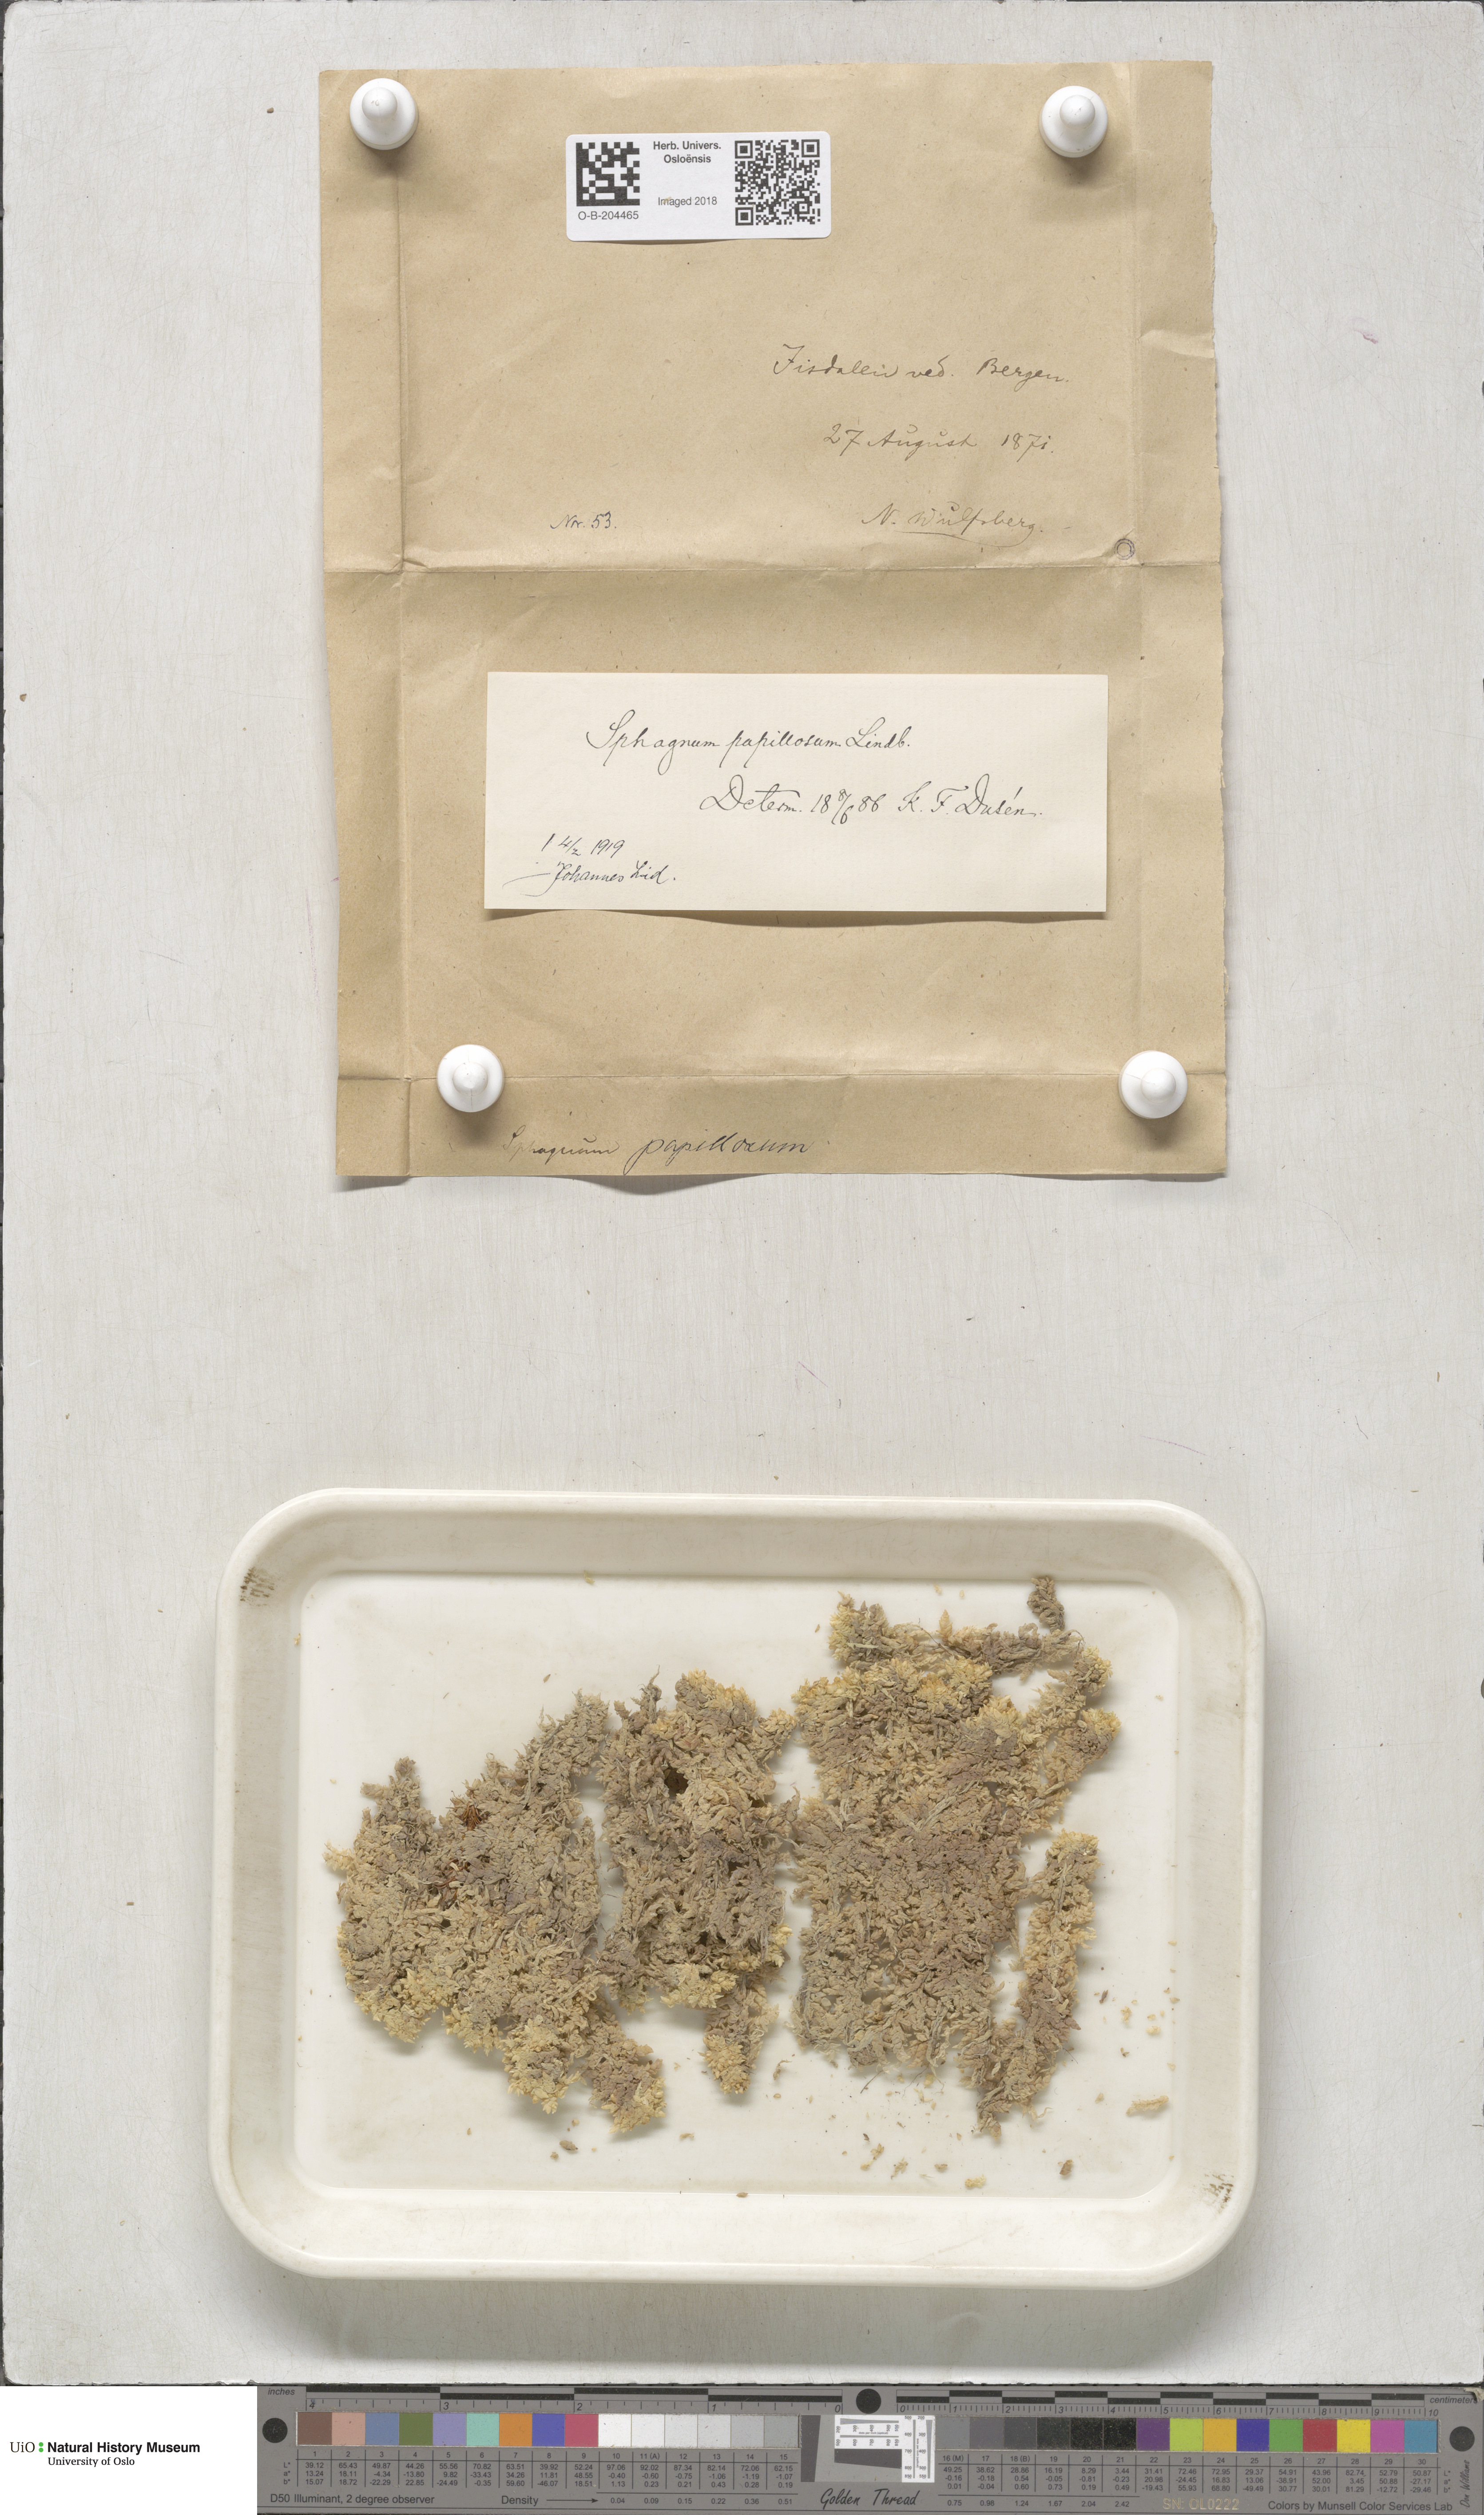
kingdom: Plantae
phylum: Bryophyta
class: Sphagnopsida
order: Sphagnales
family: Sphagnaceae
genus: Sphagnum
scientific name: Sphagnum papillosum
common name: Papillose peat moss
